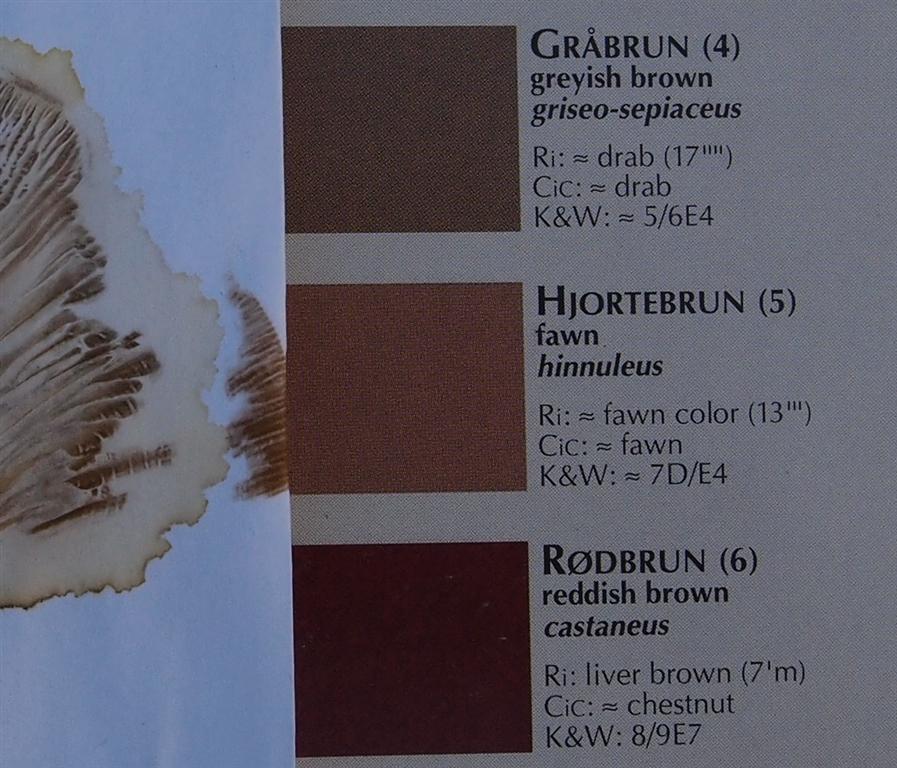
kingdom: Fungi
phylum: Basidiomycota
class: Agaricomycetes
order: Boletales
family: Paxillaceae
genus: Paxillus
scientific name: Paxillus rubicundulus
